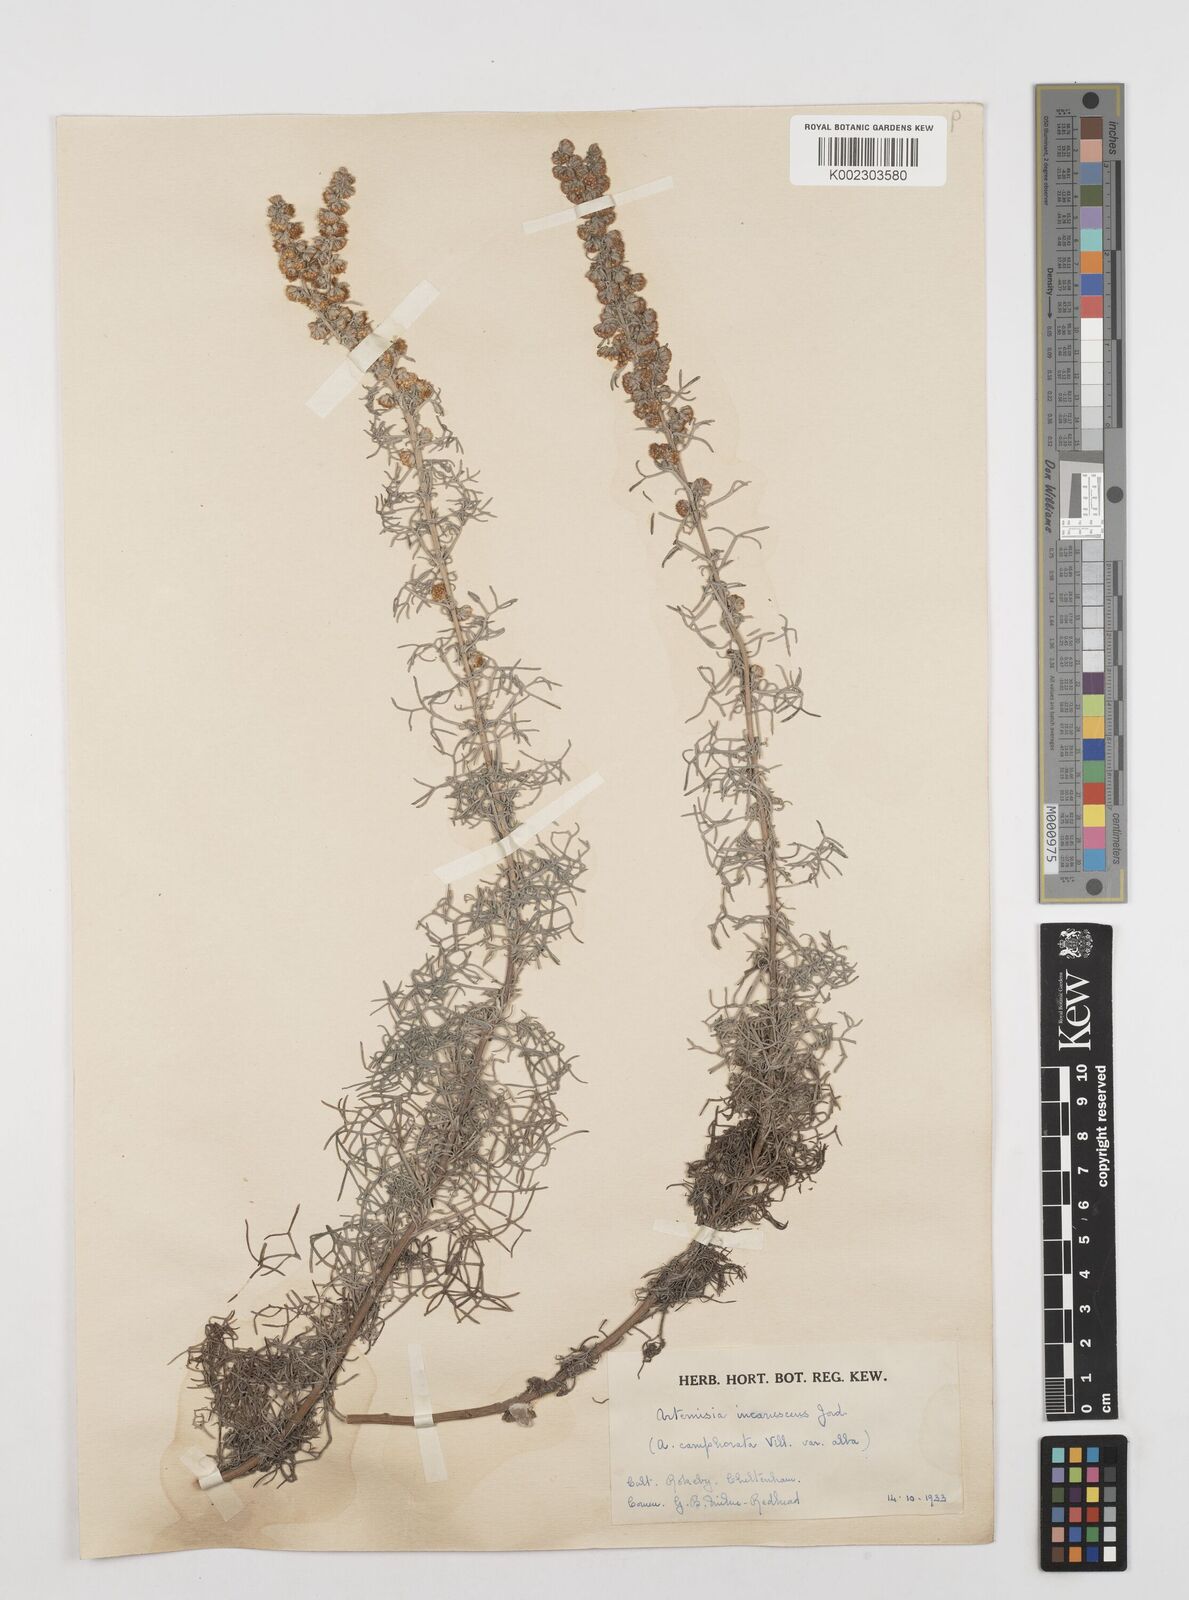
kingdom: Plantae
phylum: Tracheophyta
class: Magnoliopsida
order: Asterales
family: Asteraceae
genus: Artemisia
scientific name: Artemisia alba
